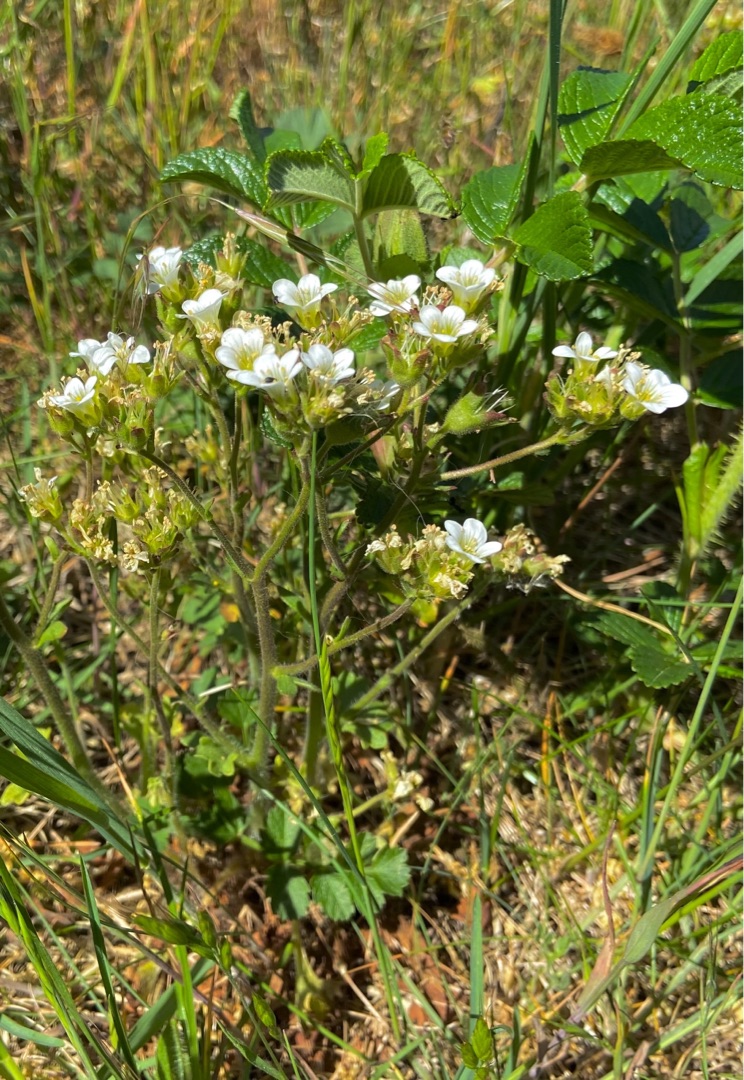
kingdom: Plantae
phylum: Tracheophyta
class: Magnoliopsida
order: Saxifragales
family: Saxifragaceae
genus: Saxifraga
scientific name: Saxifraga granulata
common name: Kornet stenbræk
